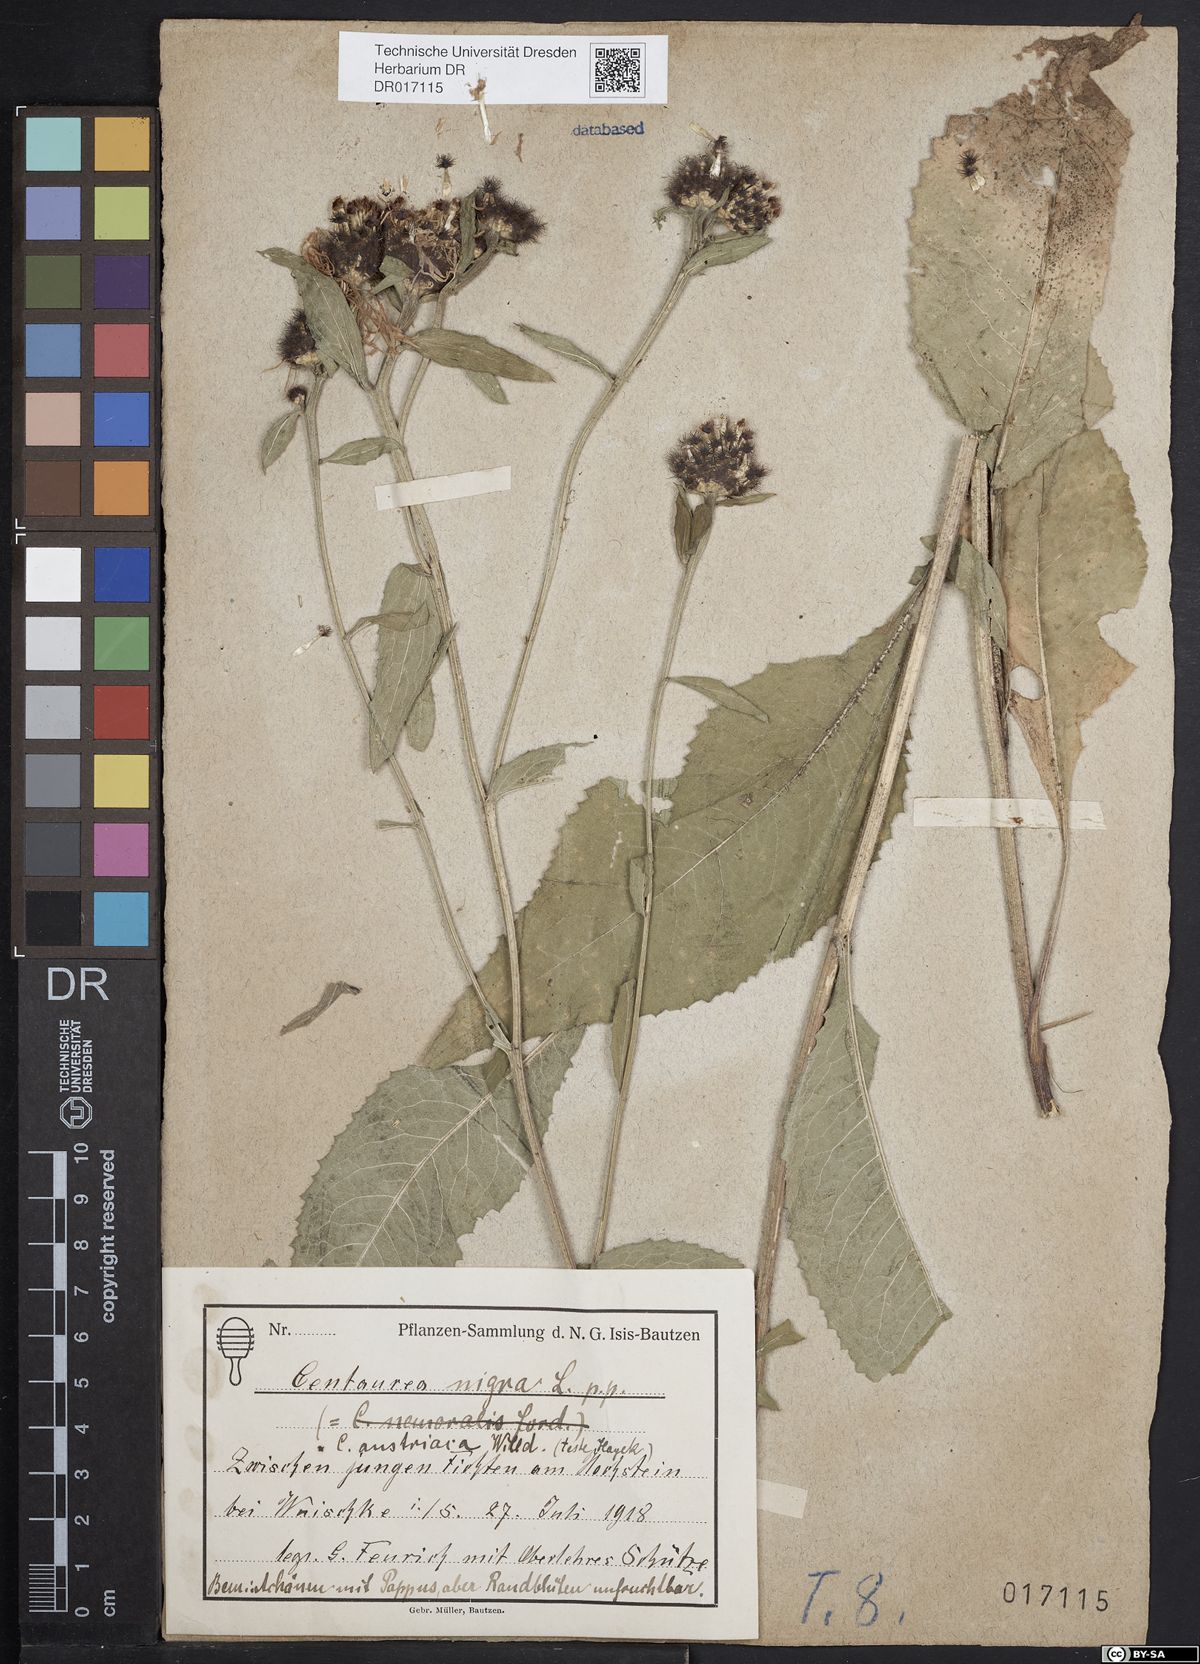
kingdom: Plantae
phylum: Tracheophyta
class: Magnoliopsida
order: Asterales
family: Asteraceae
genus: Centaurea
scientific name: Centaurea phrygia
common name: Wig knapweed
